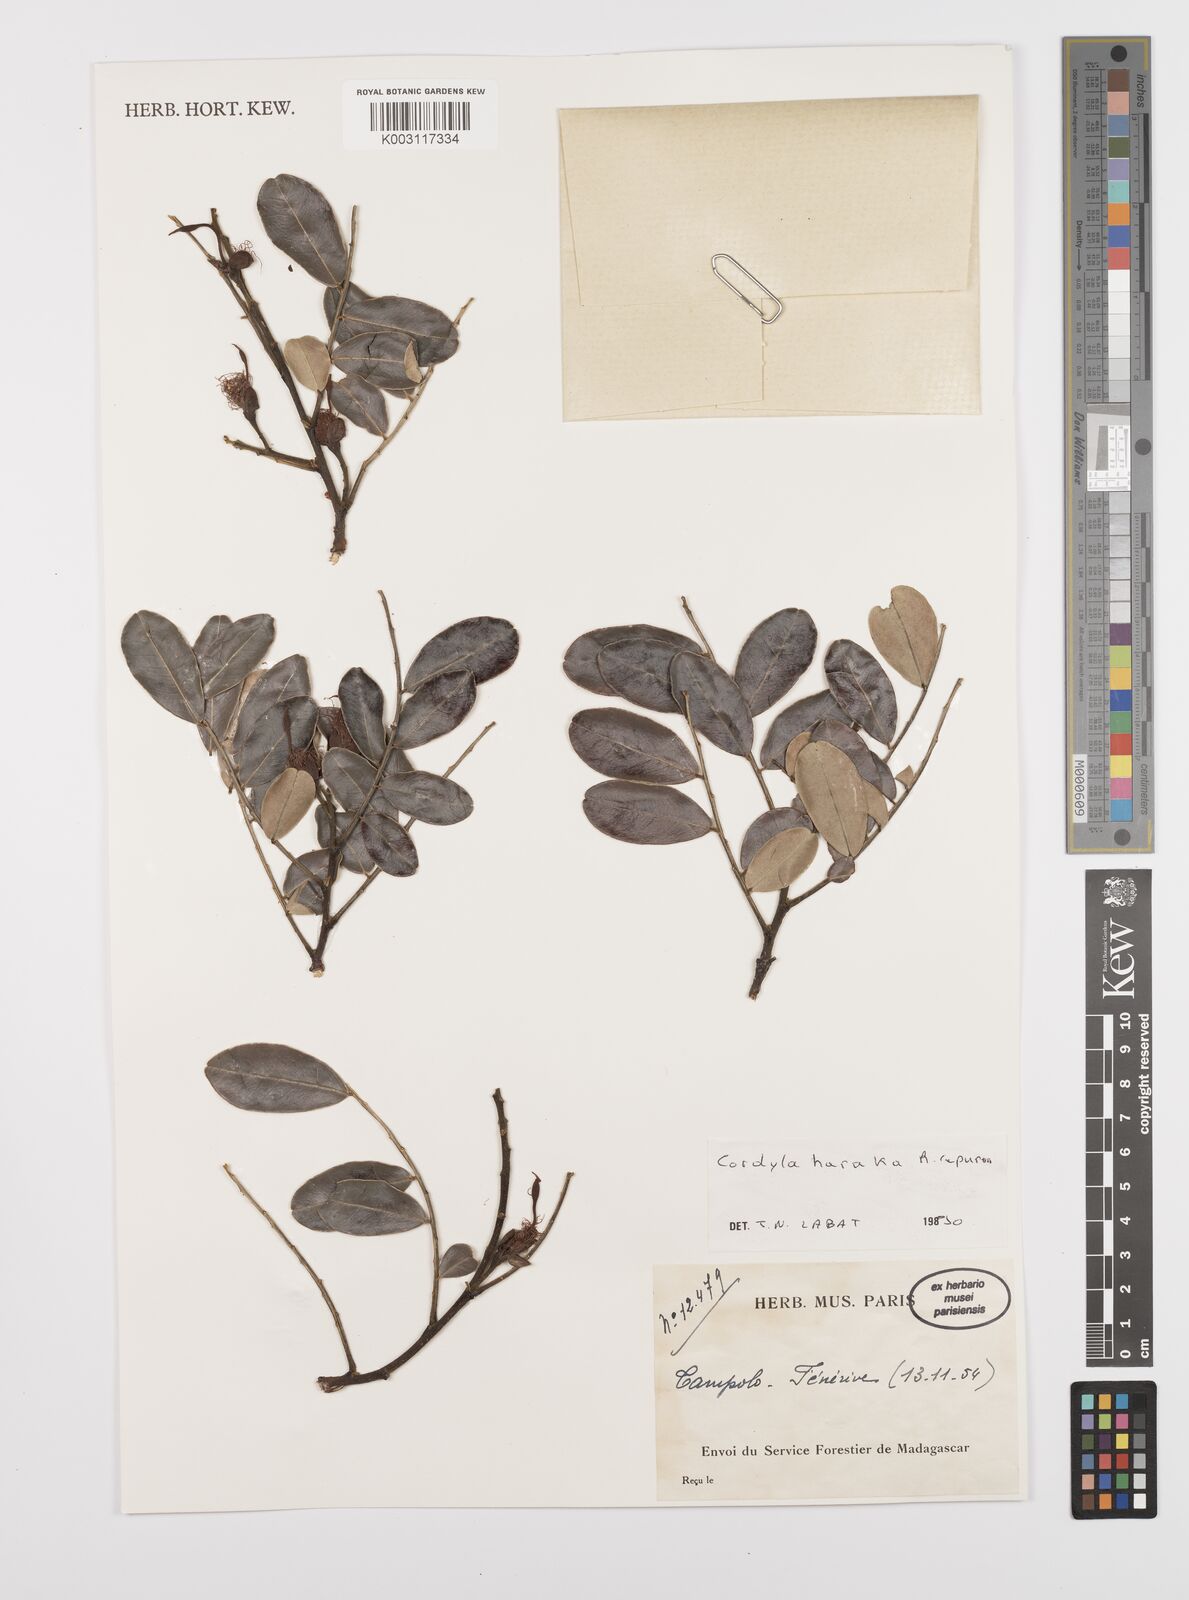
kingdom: Plantae
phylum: Tracheophyta
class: Magnoliopsida
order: Fabales
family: Fabaceae
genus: Cordyla
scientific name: Cordyla haraka
